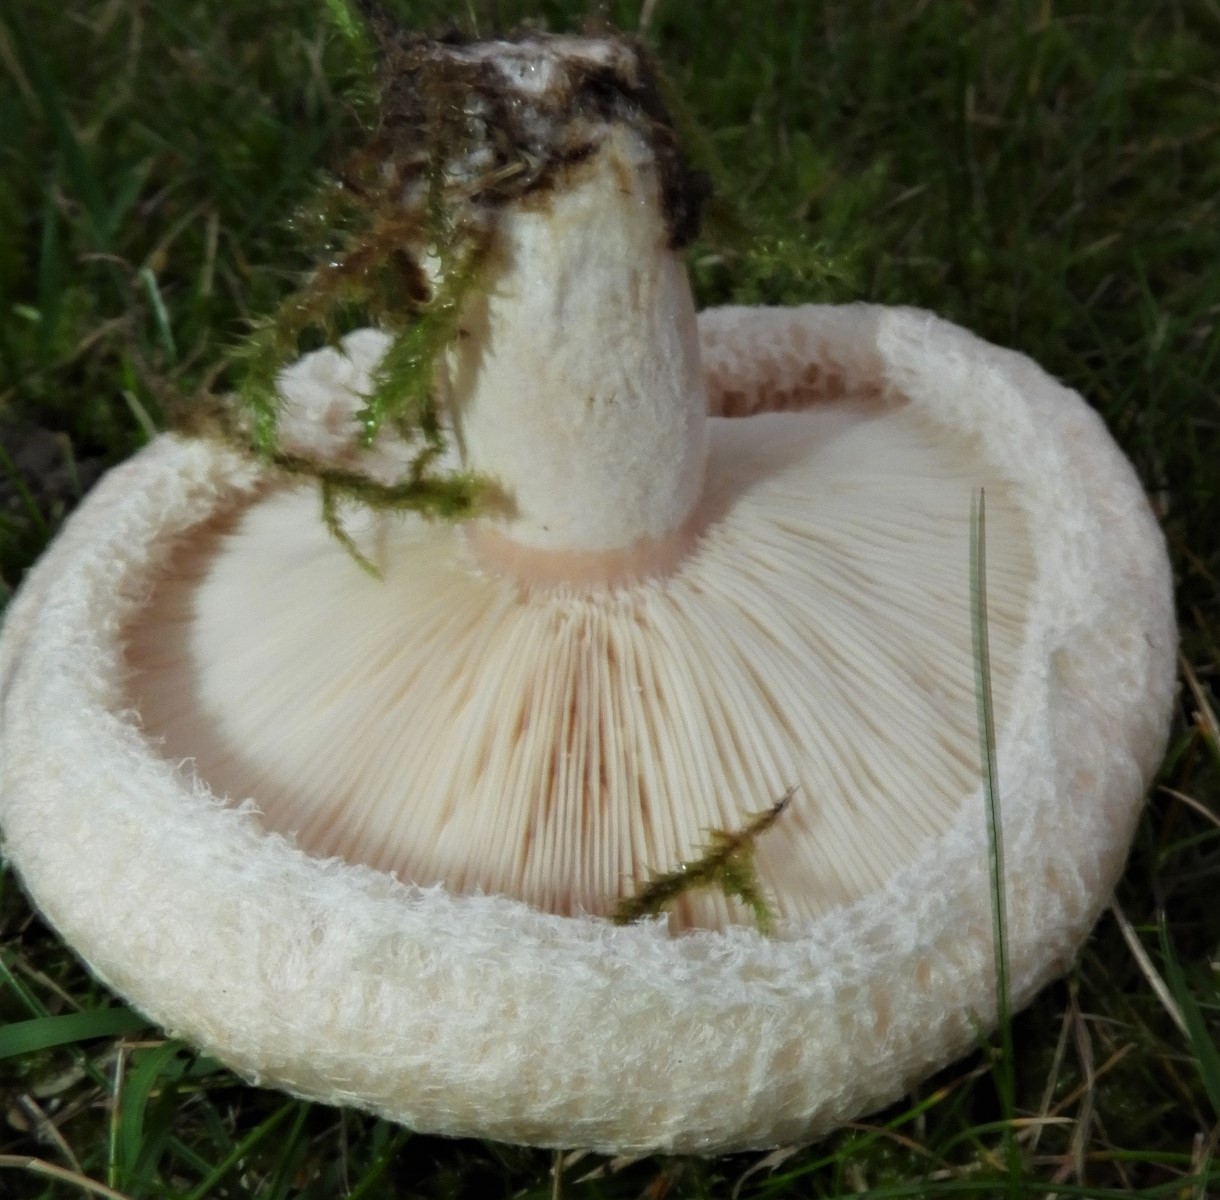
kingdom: Fungi
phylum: Basidiomycota
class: Agaricomycetes
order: Russulales
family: Russulaceae
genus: Lactarius
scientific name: Lactarius pubescens
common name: dunet mælkehat
